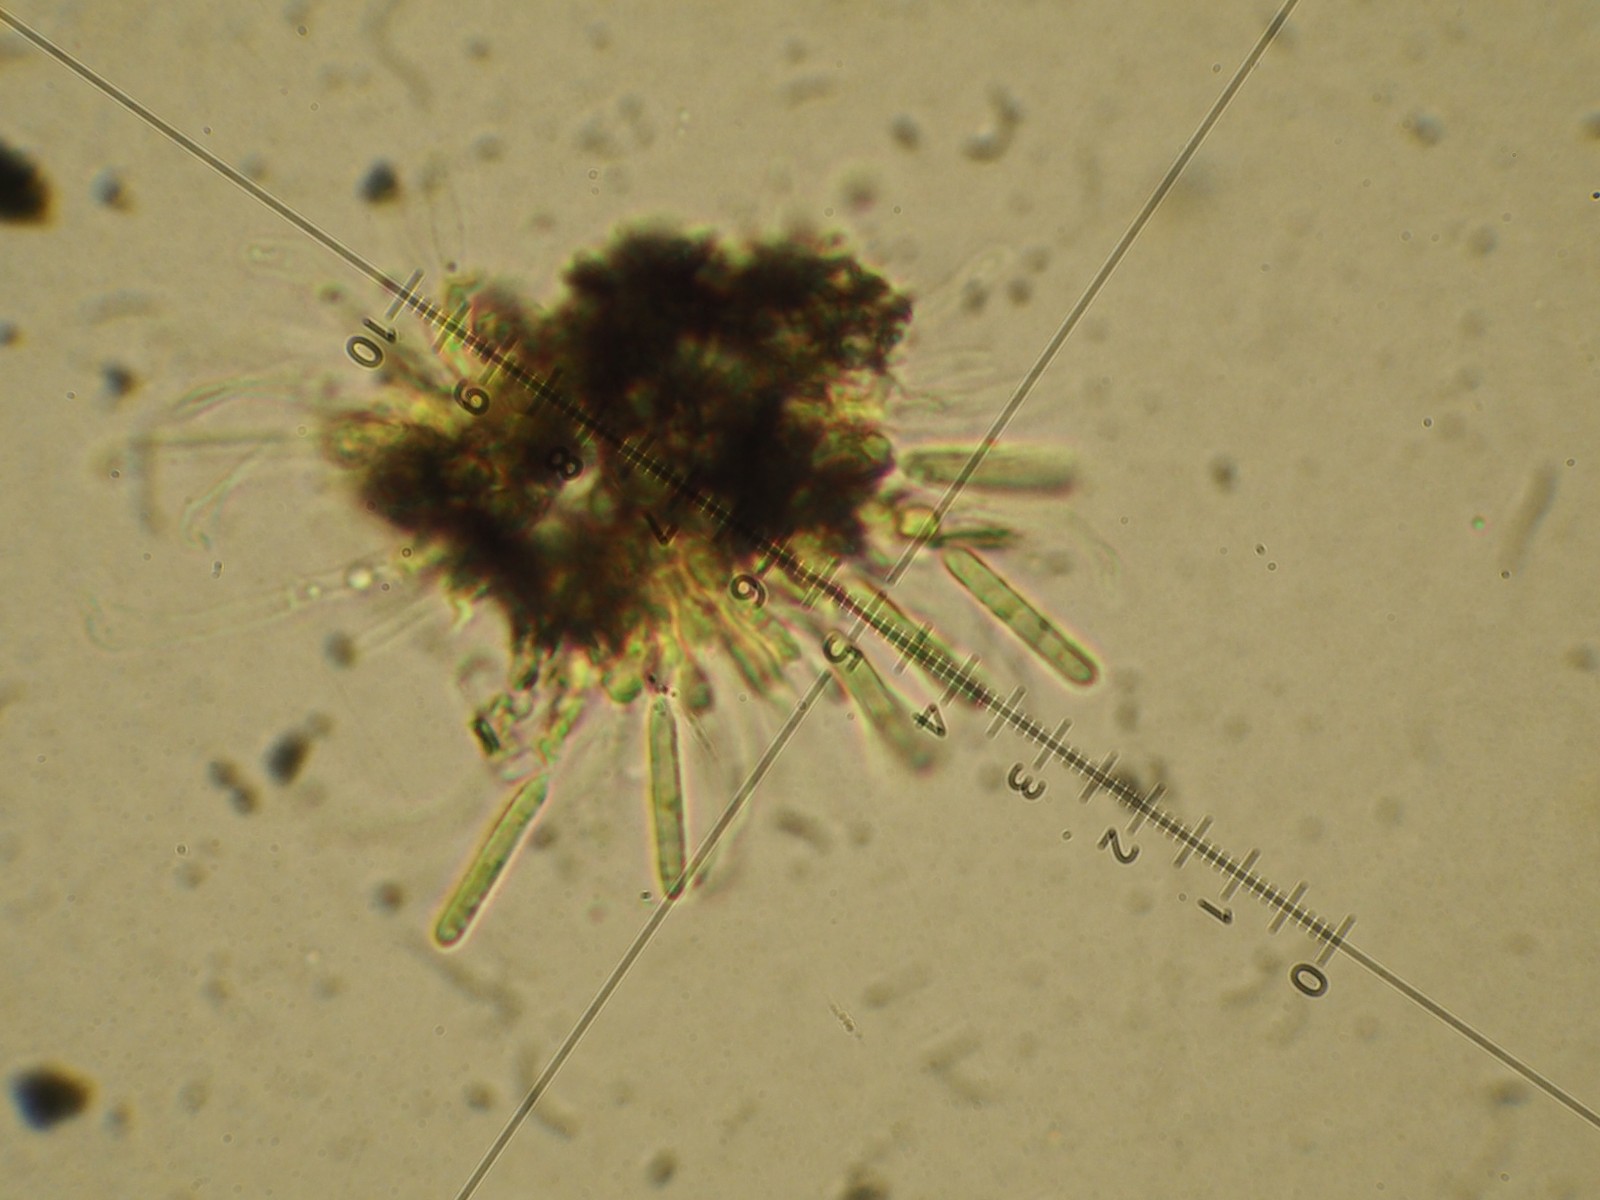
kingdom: Fungi
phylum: Ascomycota
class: Leotiomycetes
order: Helotiales
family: Dermateaceae
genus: Coleophoma
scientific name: Coleophoma cylindrospora
